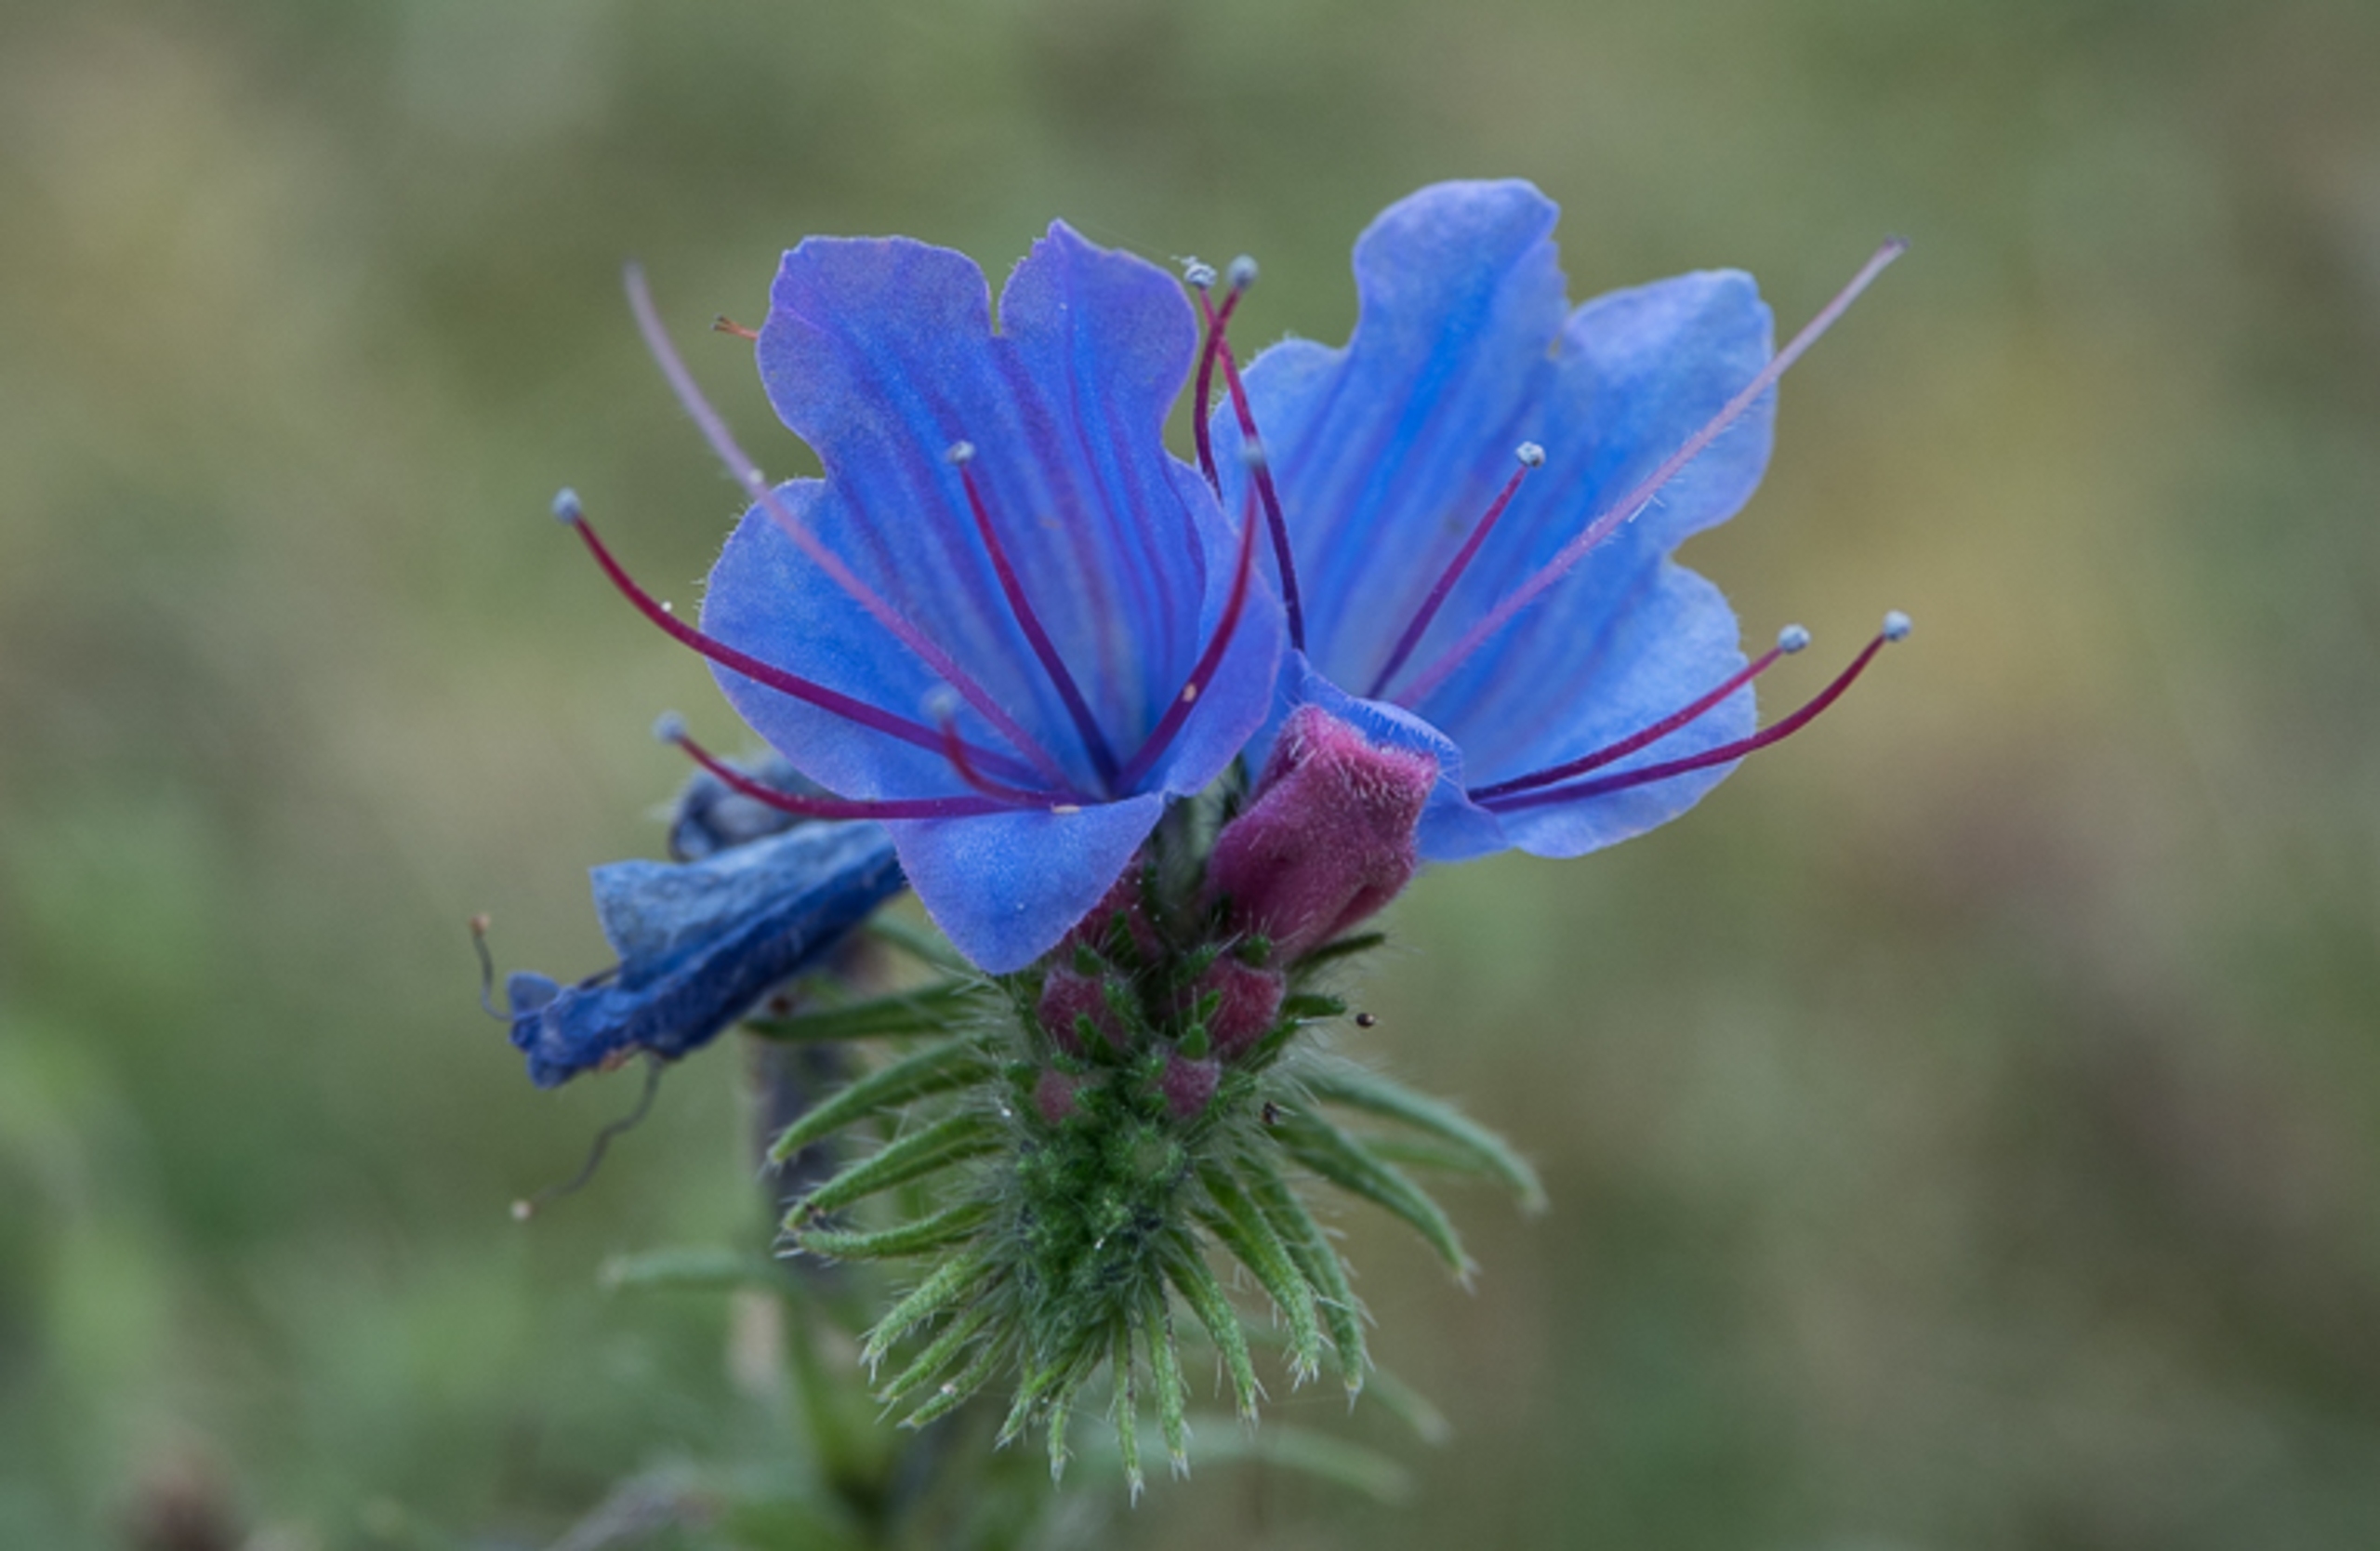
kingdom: Plantae
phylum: Tracheophyta
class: Magnoliopsida
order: Boraginales
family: Boraginaceae
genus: Echium
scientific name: Echium vulgare
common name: Slangehoved
